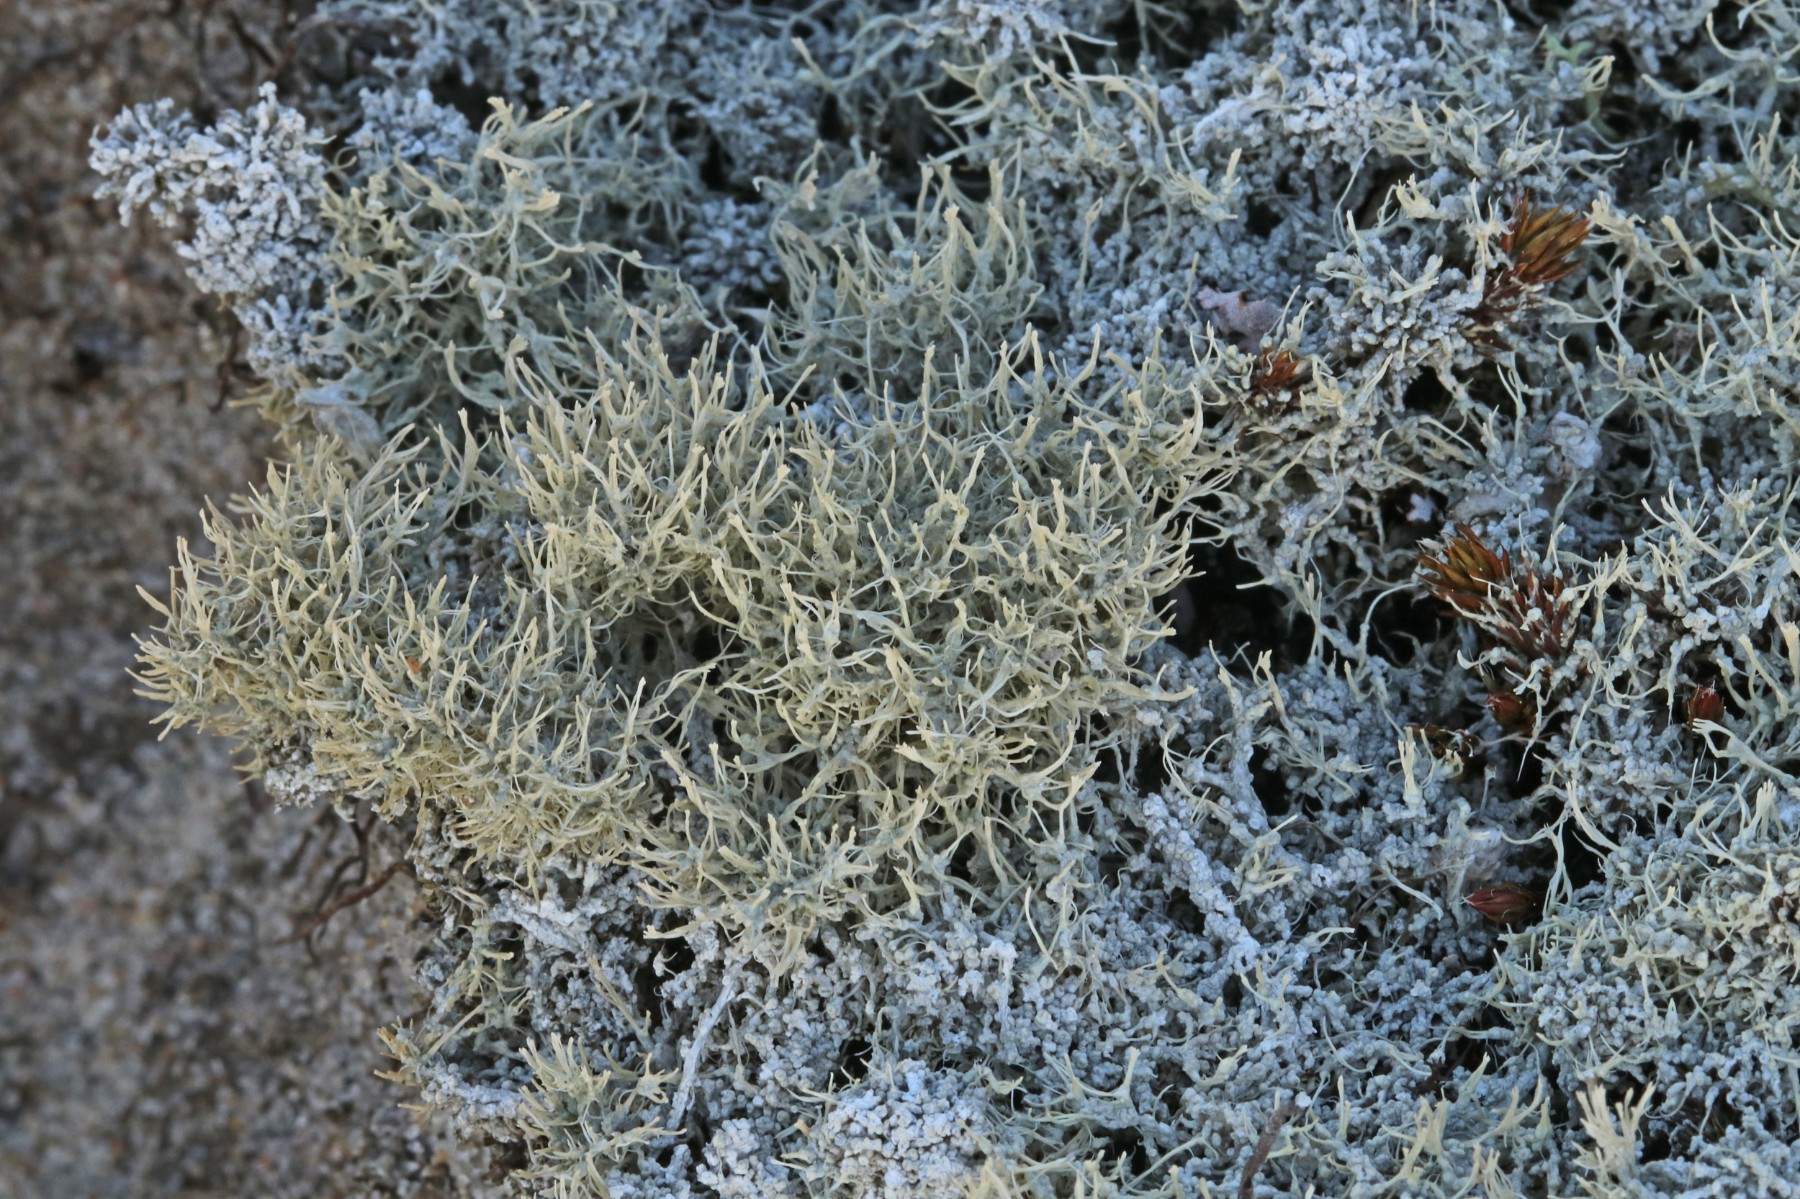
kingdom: Fungi
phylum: Ascomycota
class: Lecanoromycetes
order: Pertusariales
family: Ochrolechiaceae
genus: Ochrolechia
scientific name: Ochrolechia frigida
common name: fjeld-blegskivelav
